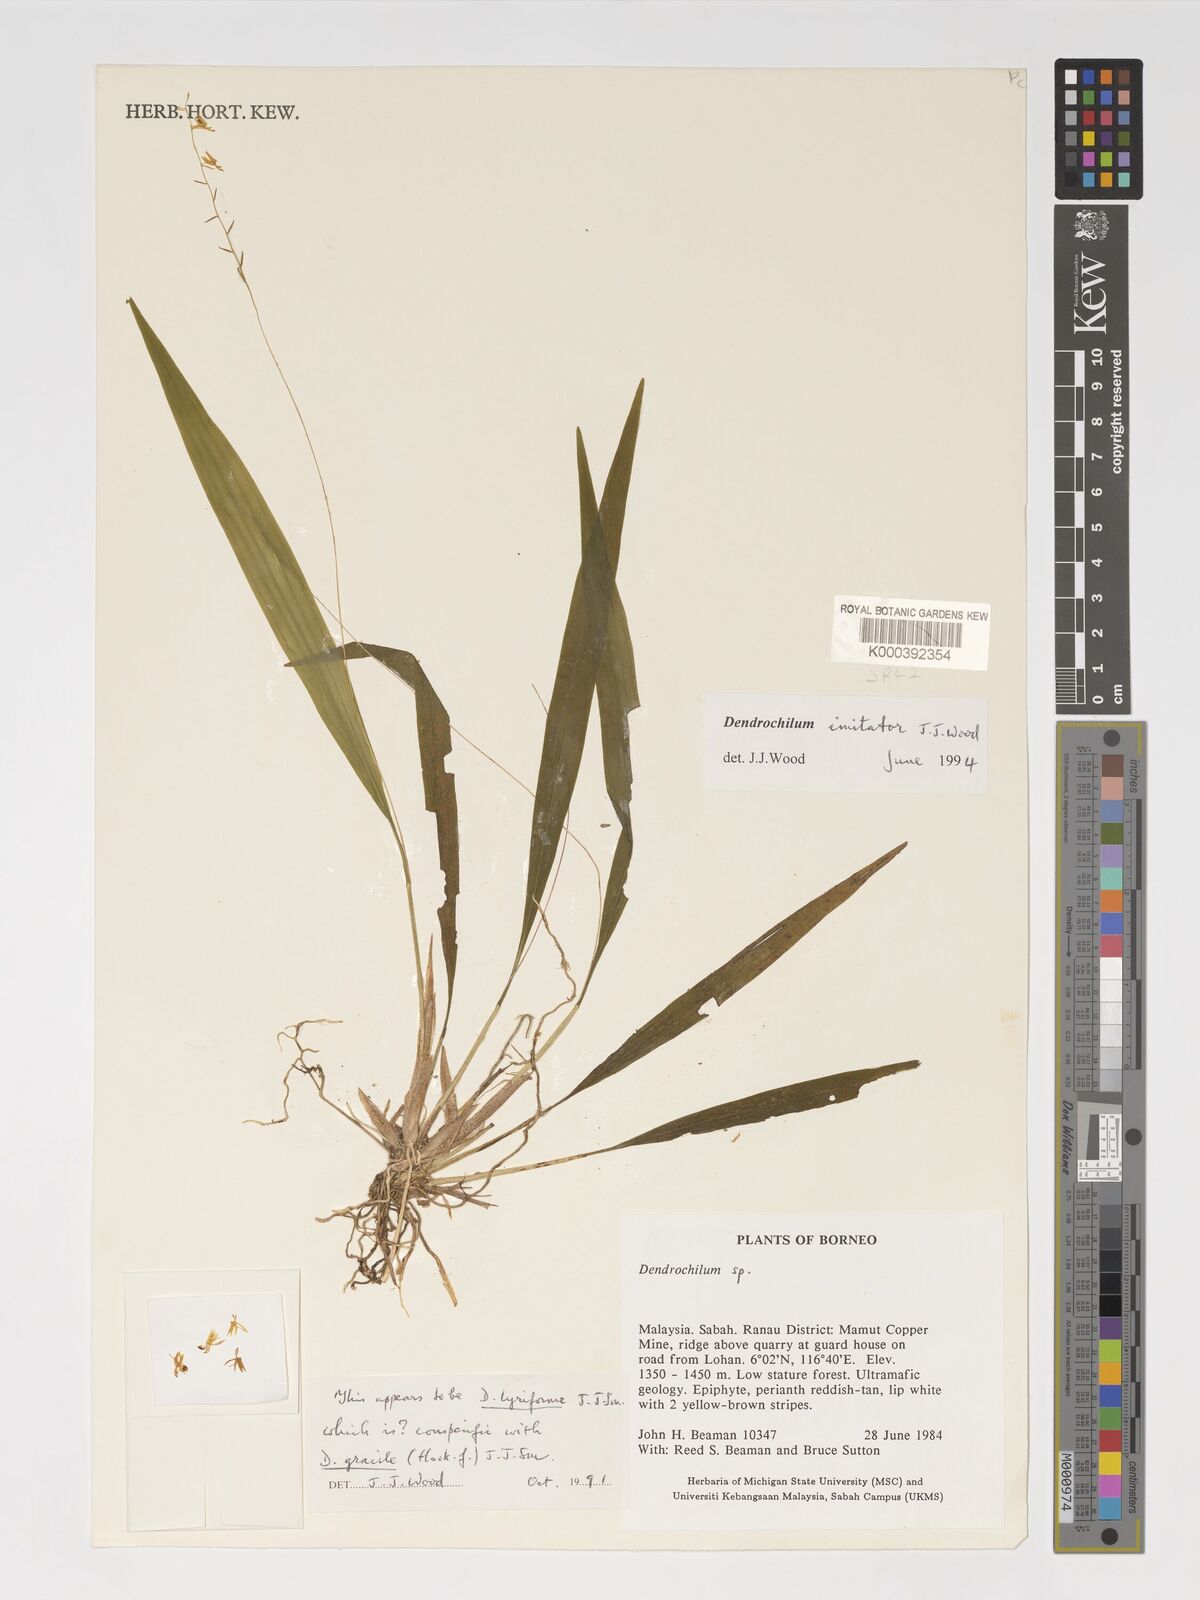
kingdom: Plantae
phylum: Tracheophyta
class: Liliopsida
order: Asparagales
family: Orchidaceae
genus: Coelogyne
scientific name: Coelogyne imitator
